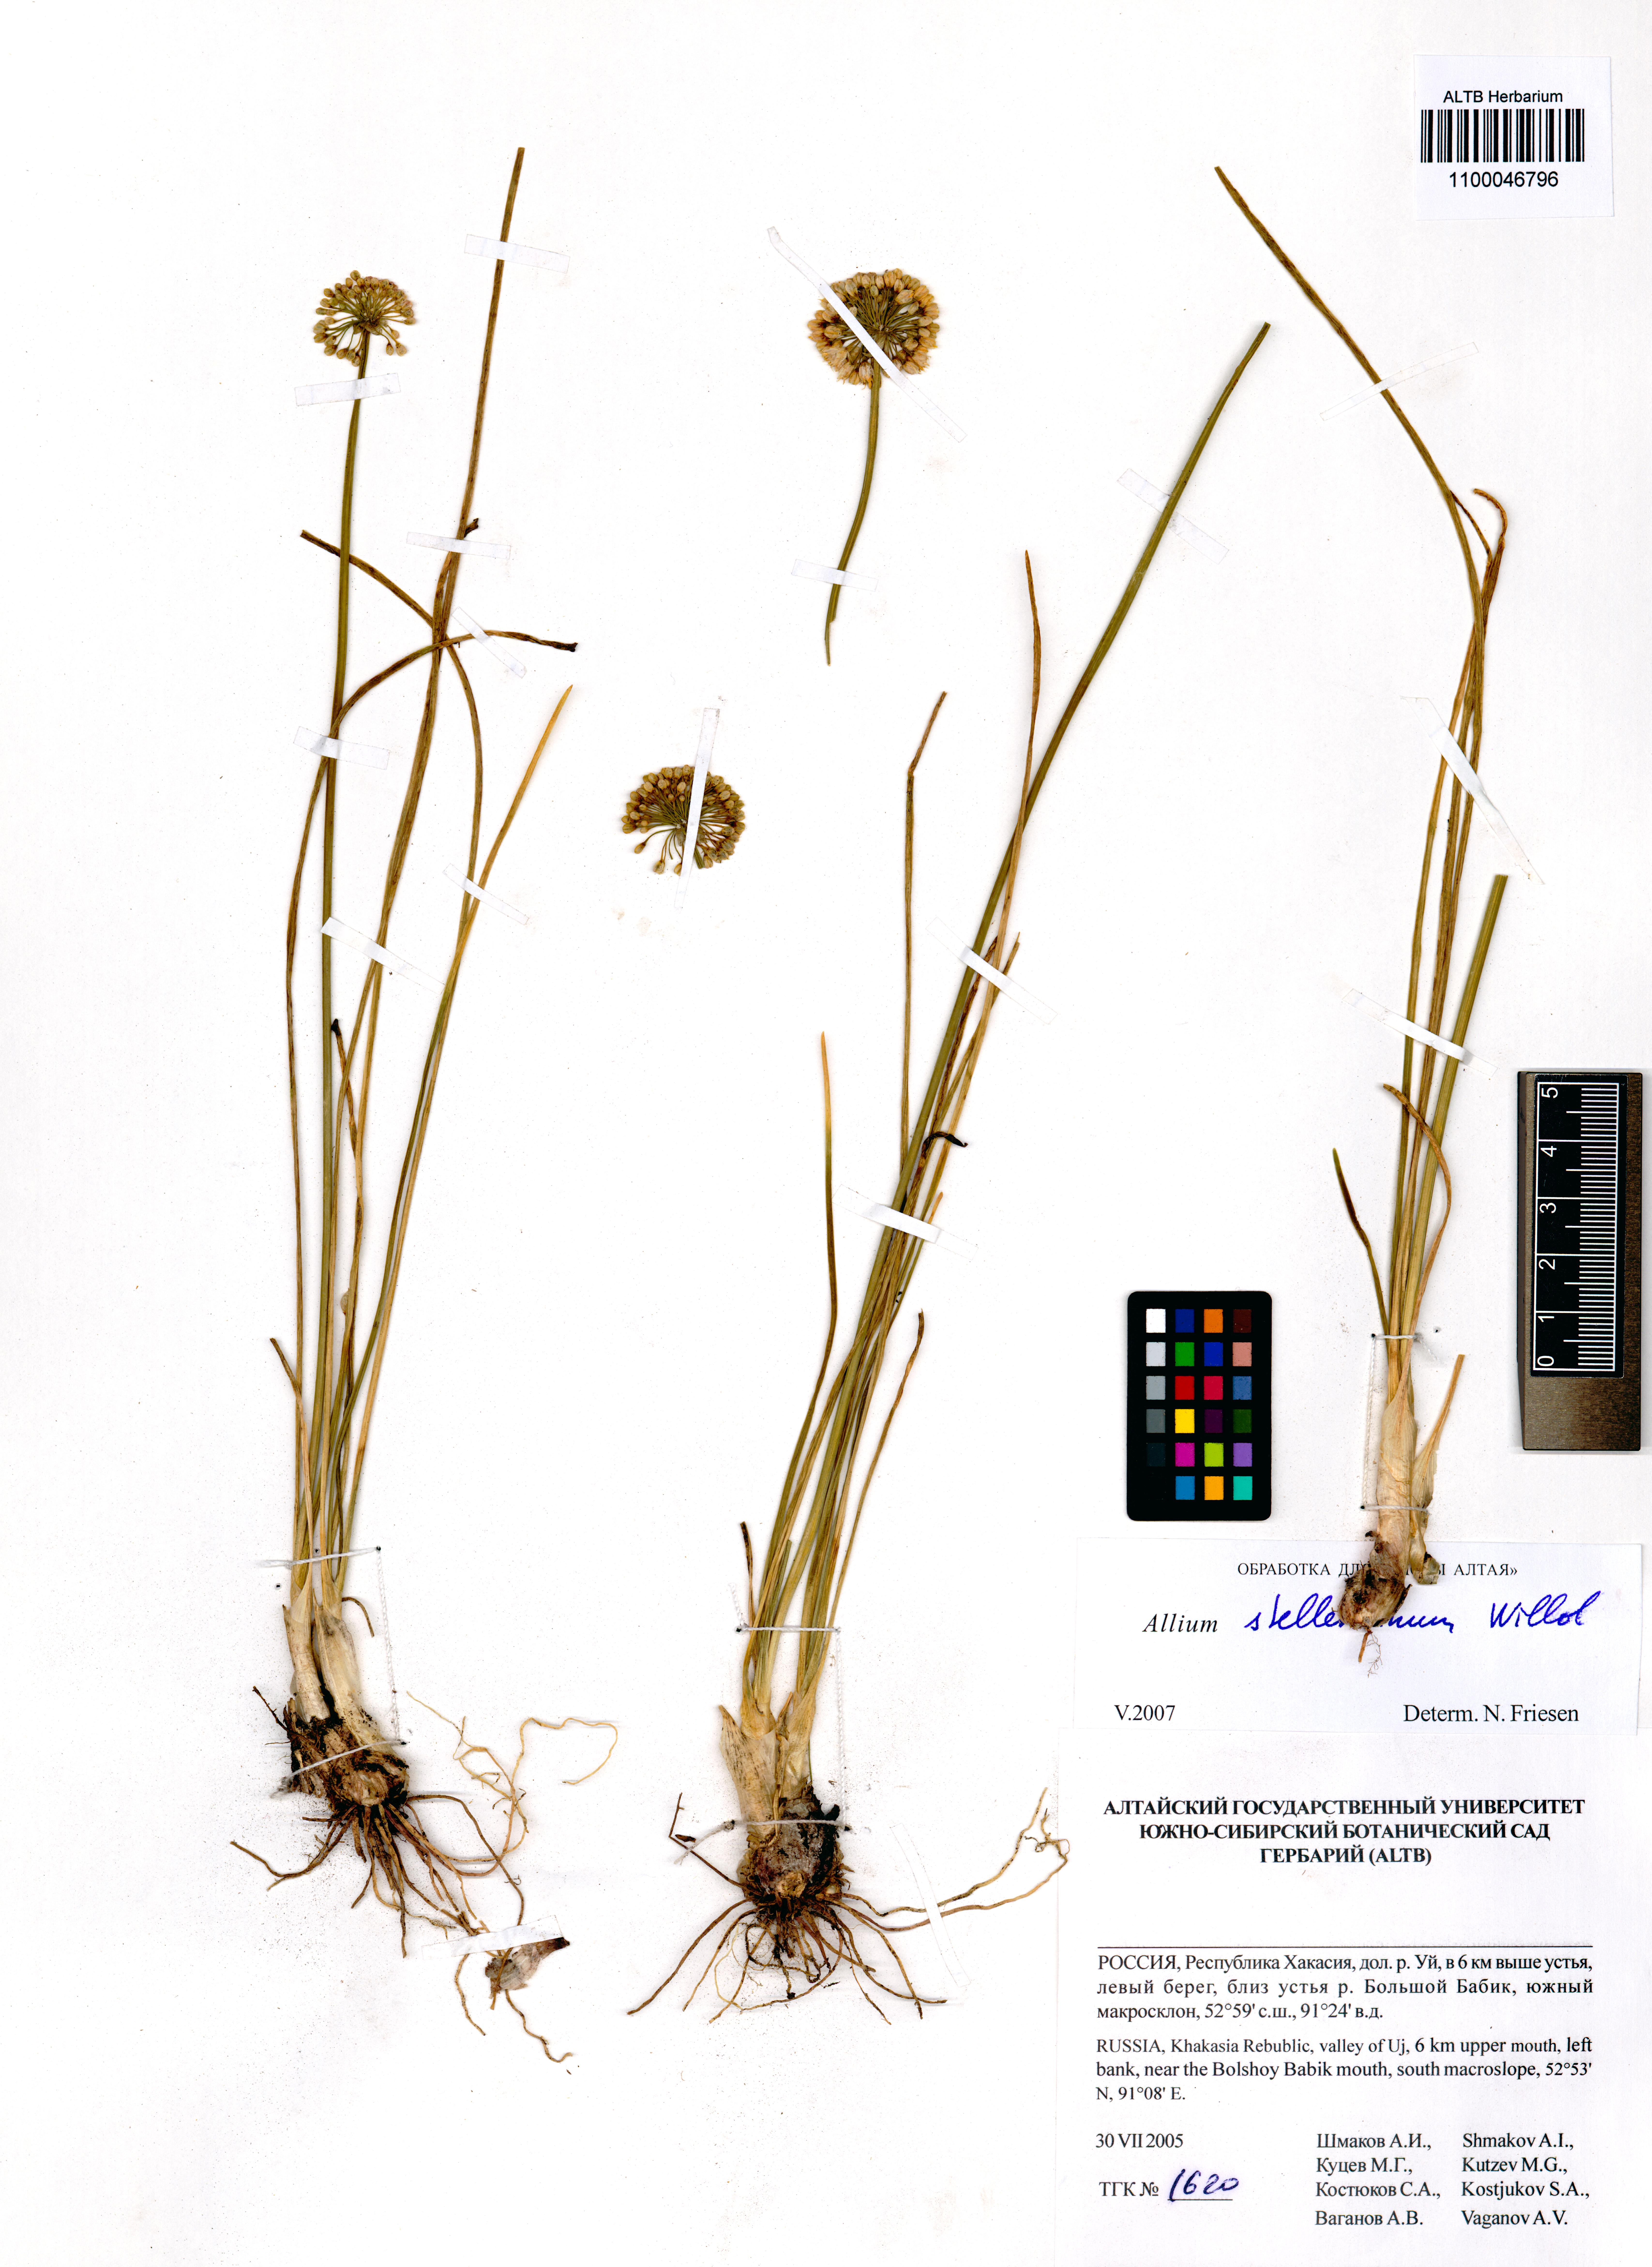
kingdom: Plantae
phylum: Tracheophyta
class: Liliopsida
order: Asparagales
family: Amaryllidaceae
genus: Allium
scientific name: Allium stellerianum
